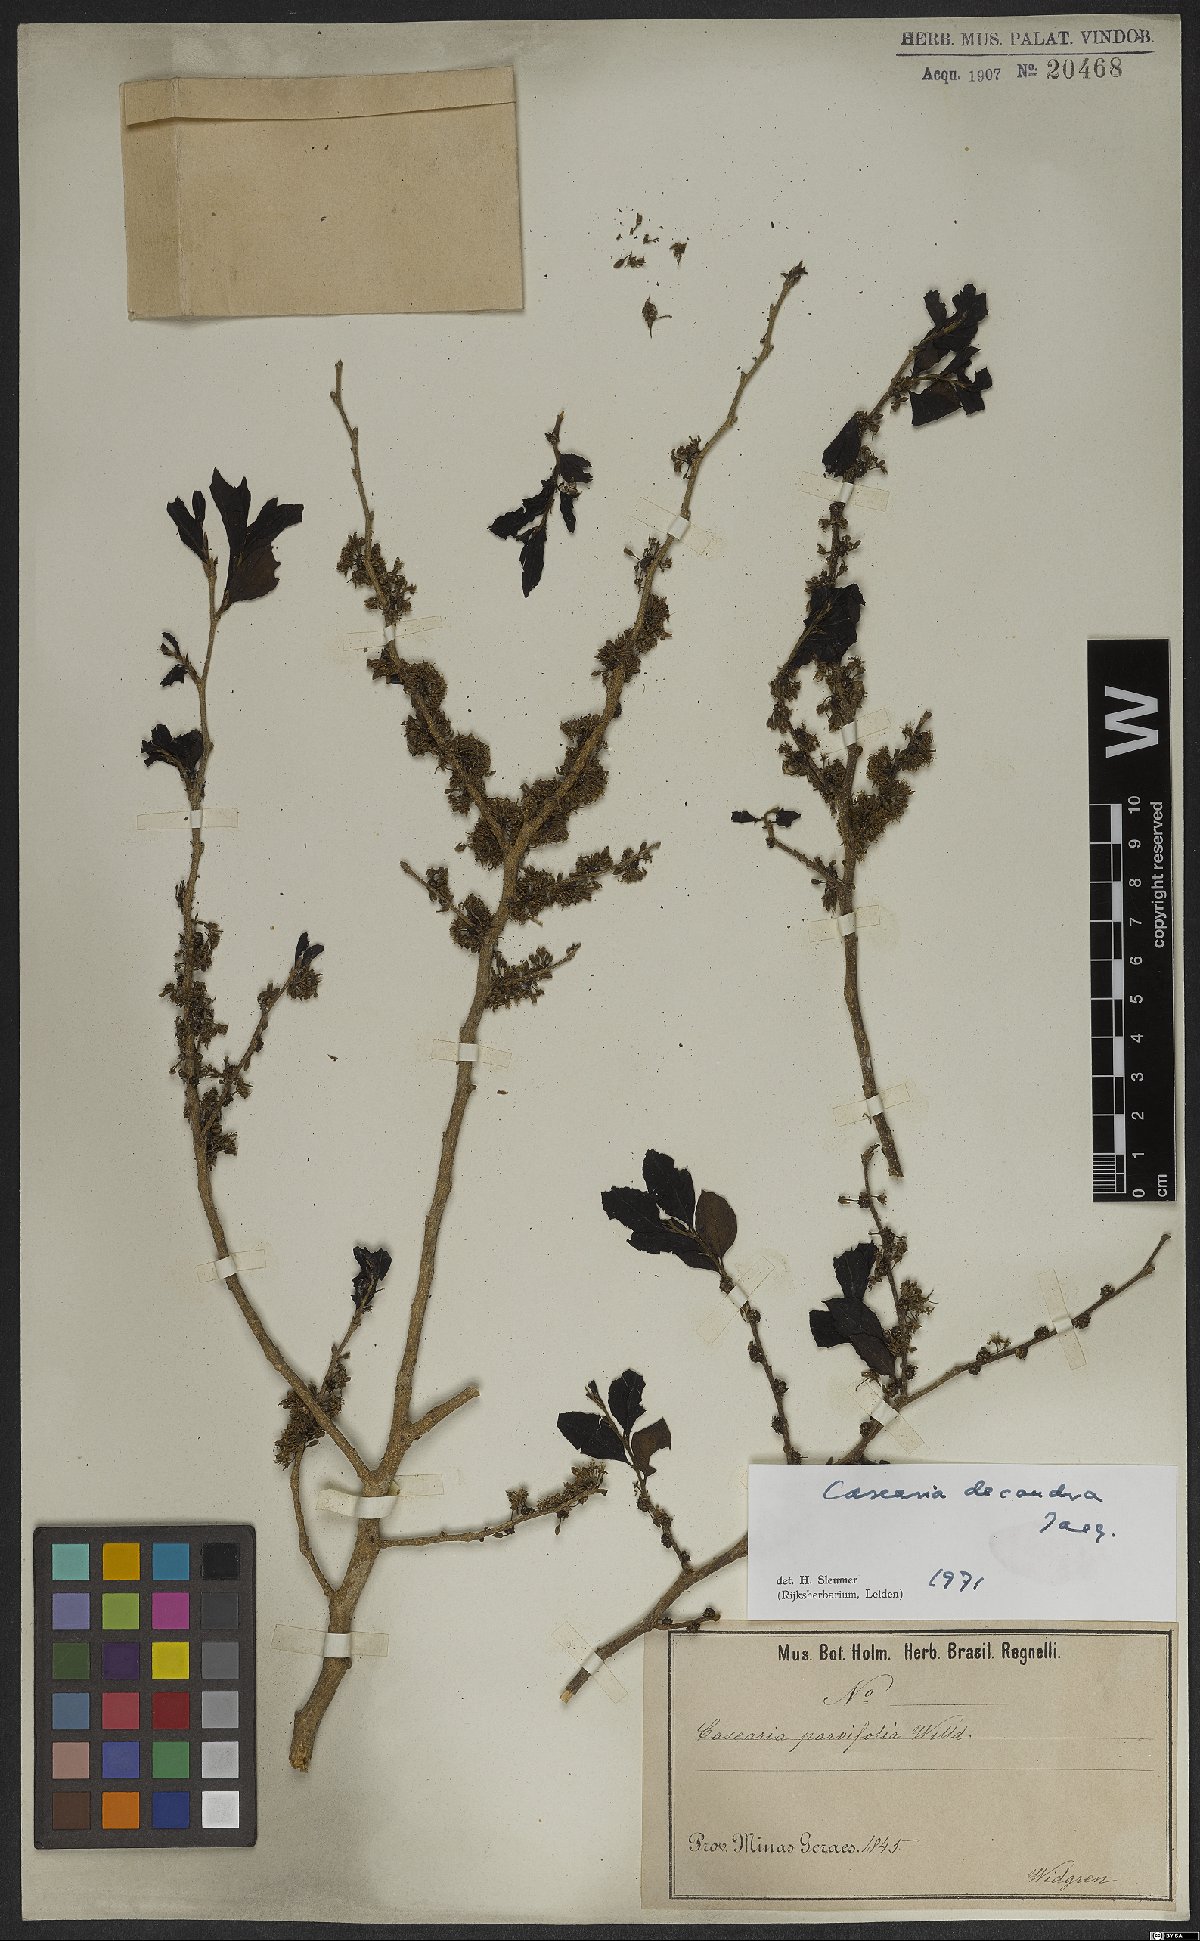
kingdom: Plantae
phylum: Tracheophyta
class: Magnoliopsida
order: Malpighiales
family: Salicaceae
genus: Casearia
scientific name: Casearia decandra
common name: Crack open
